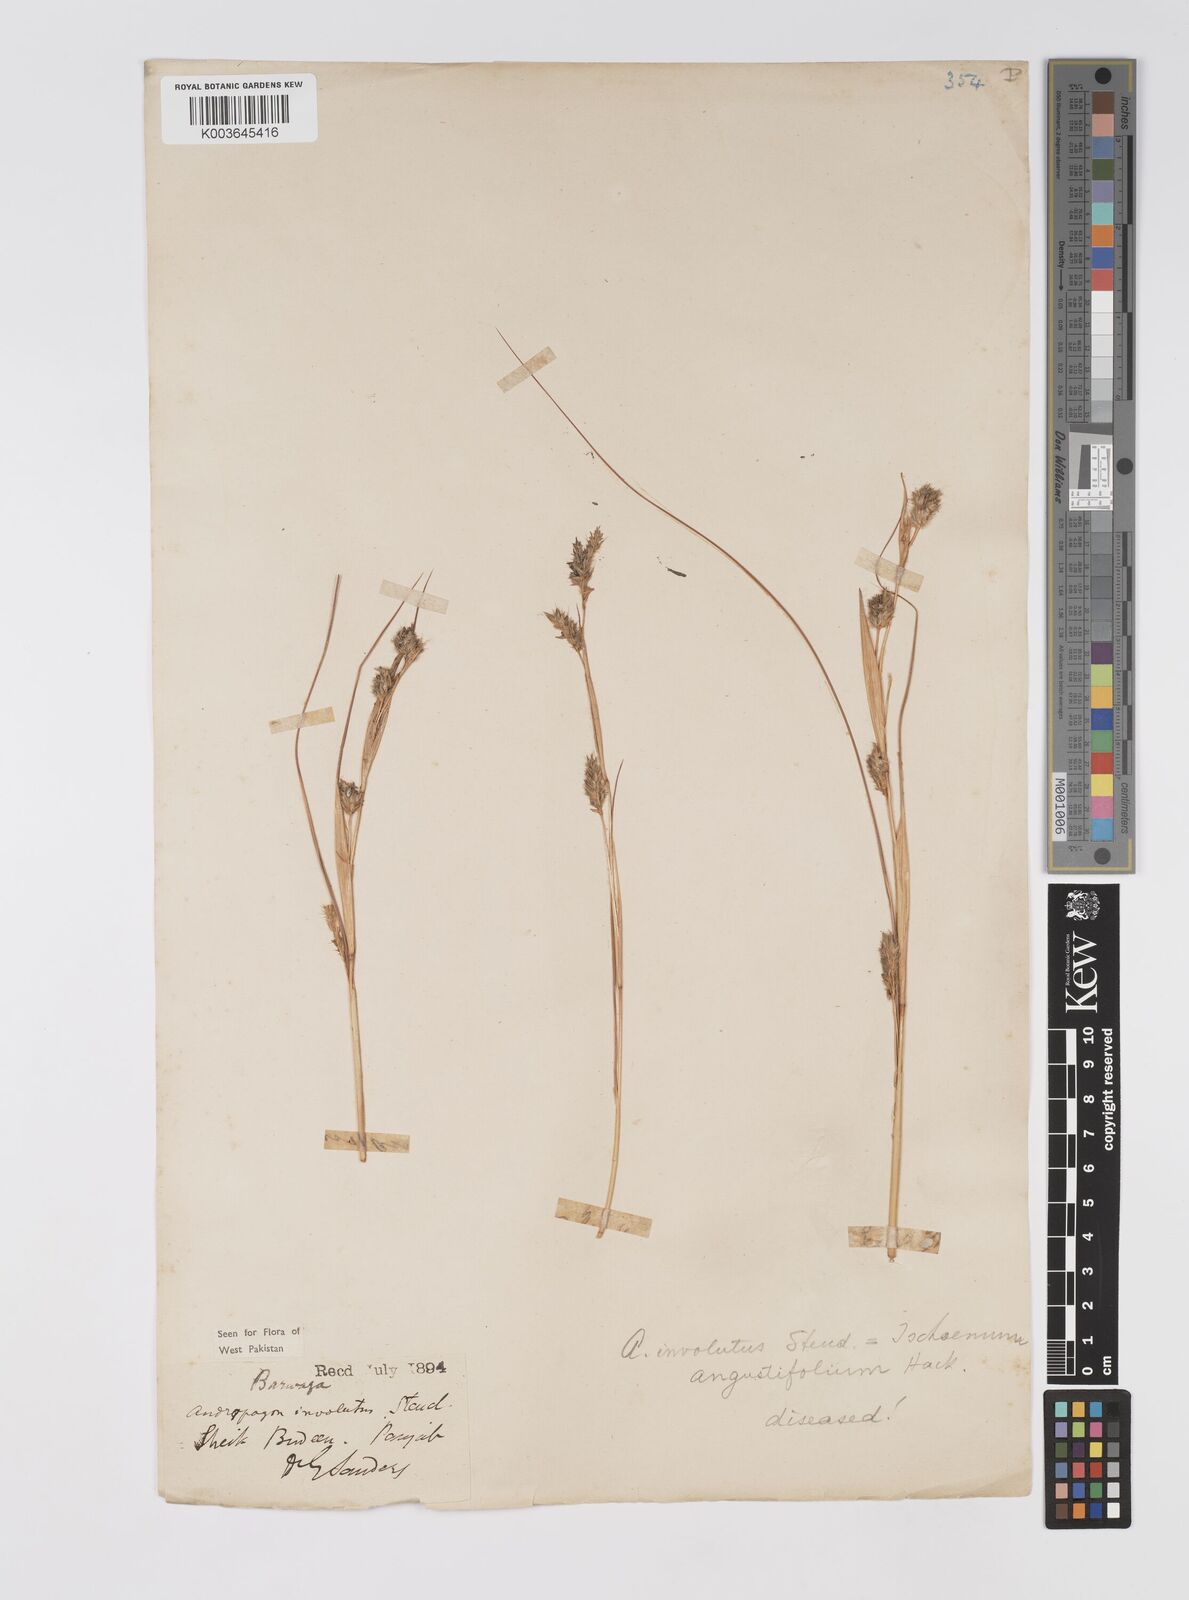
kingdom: Plantae
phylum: Tracheophyta
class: Liliopsida
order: Poales
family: Poaceae
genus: Eulaliopsis
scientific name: Eulaliopsis binata
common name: Baib grass
